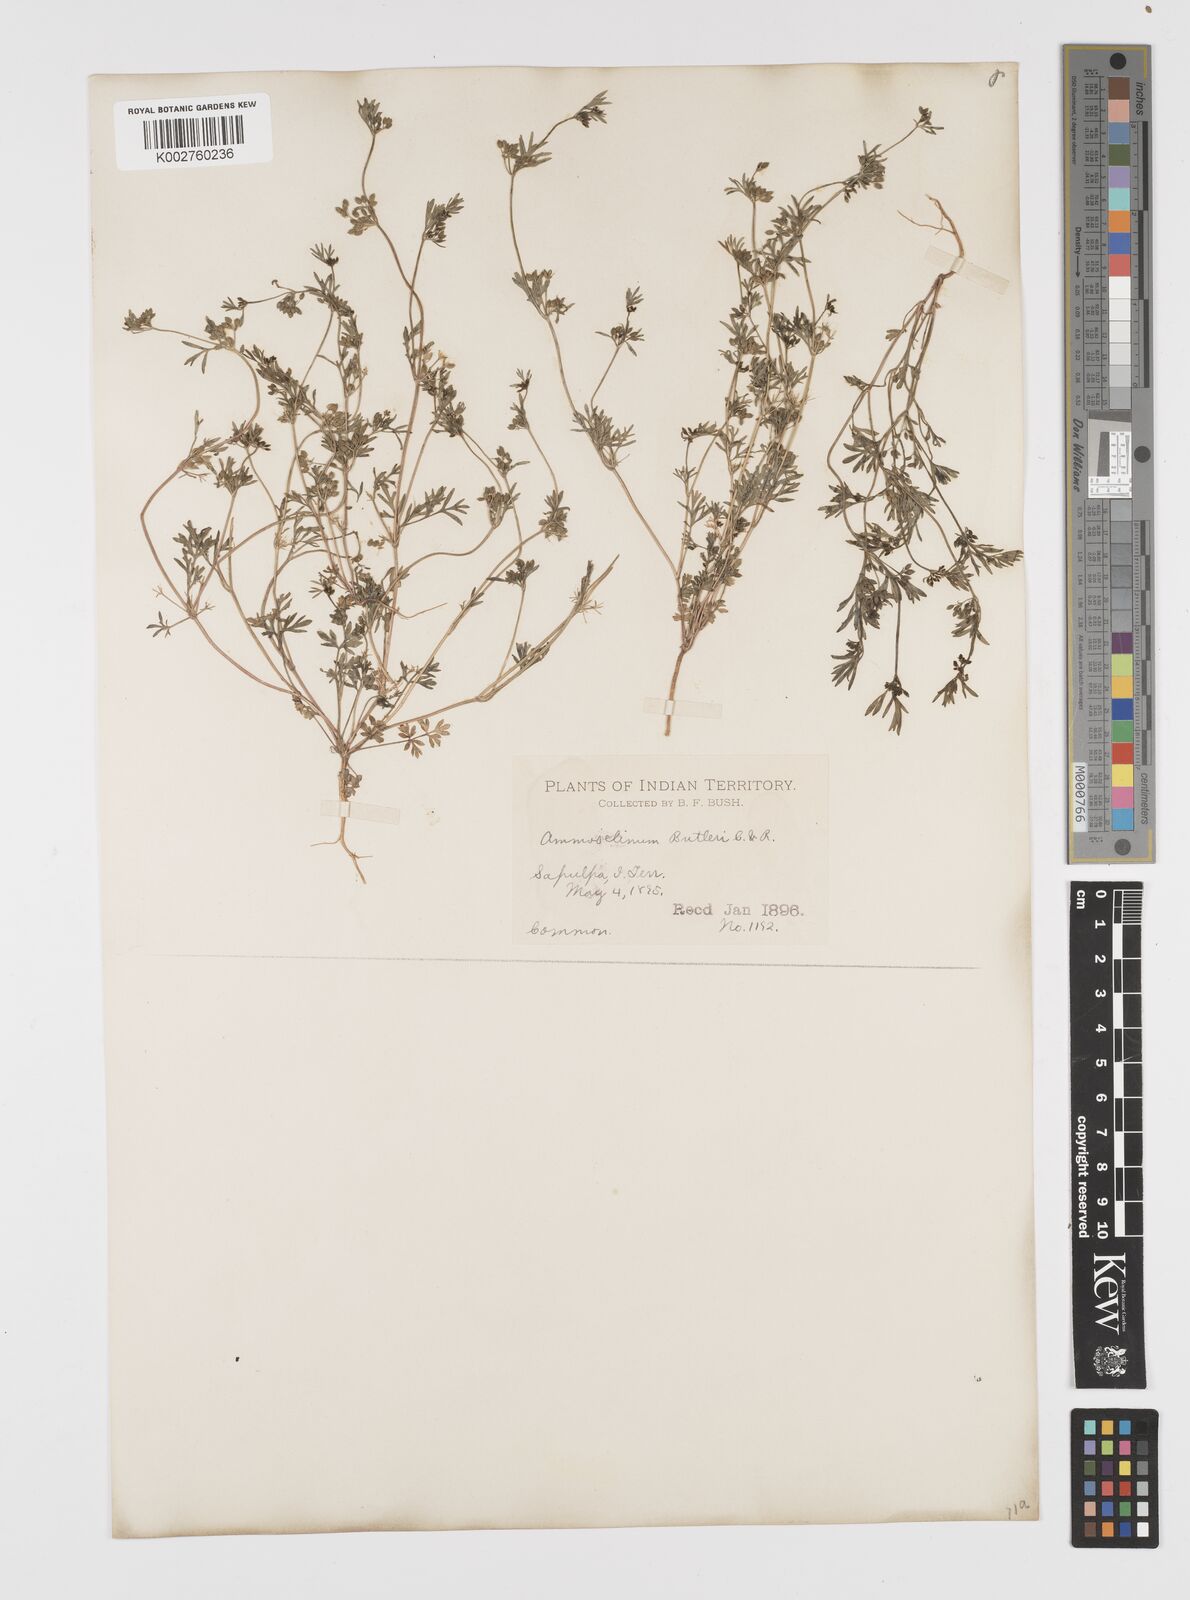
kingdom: Plantae
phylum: Tracheophyta
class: Magnoliopsida
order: Apiales
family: Apiaceae
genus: Ammoselinum
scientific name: Ammoselinum butleri
